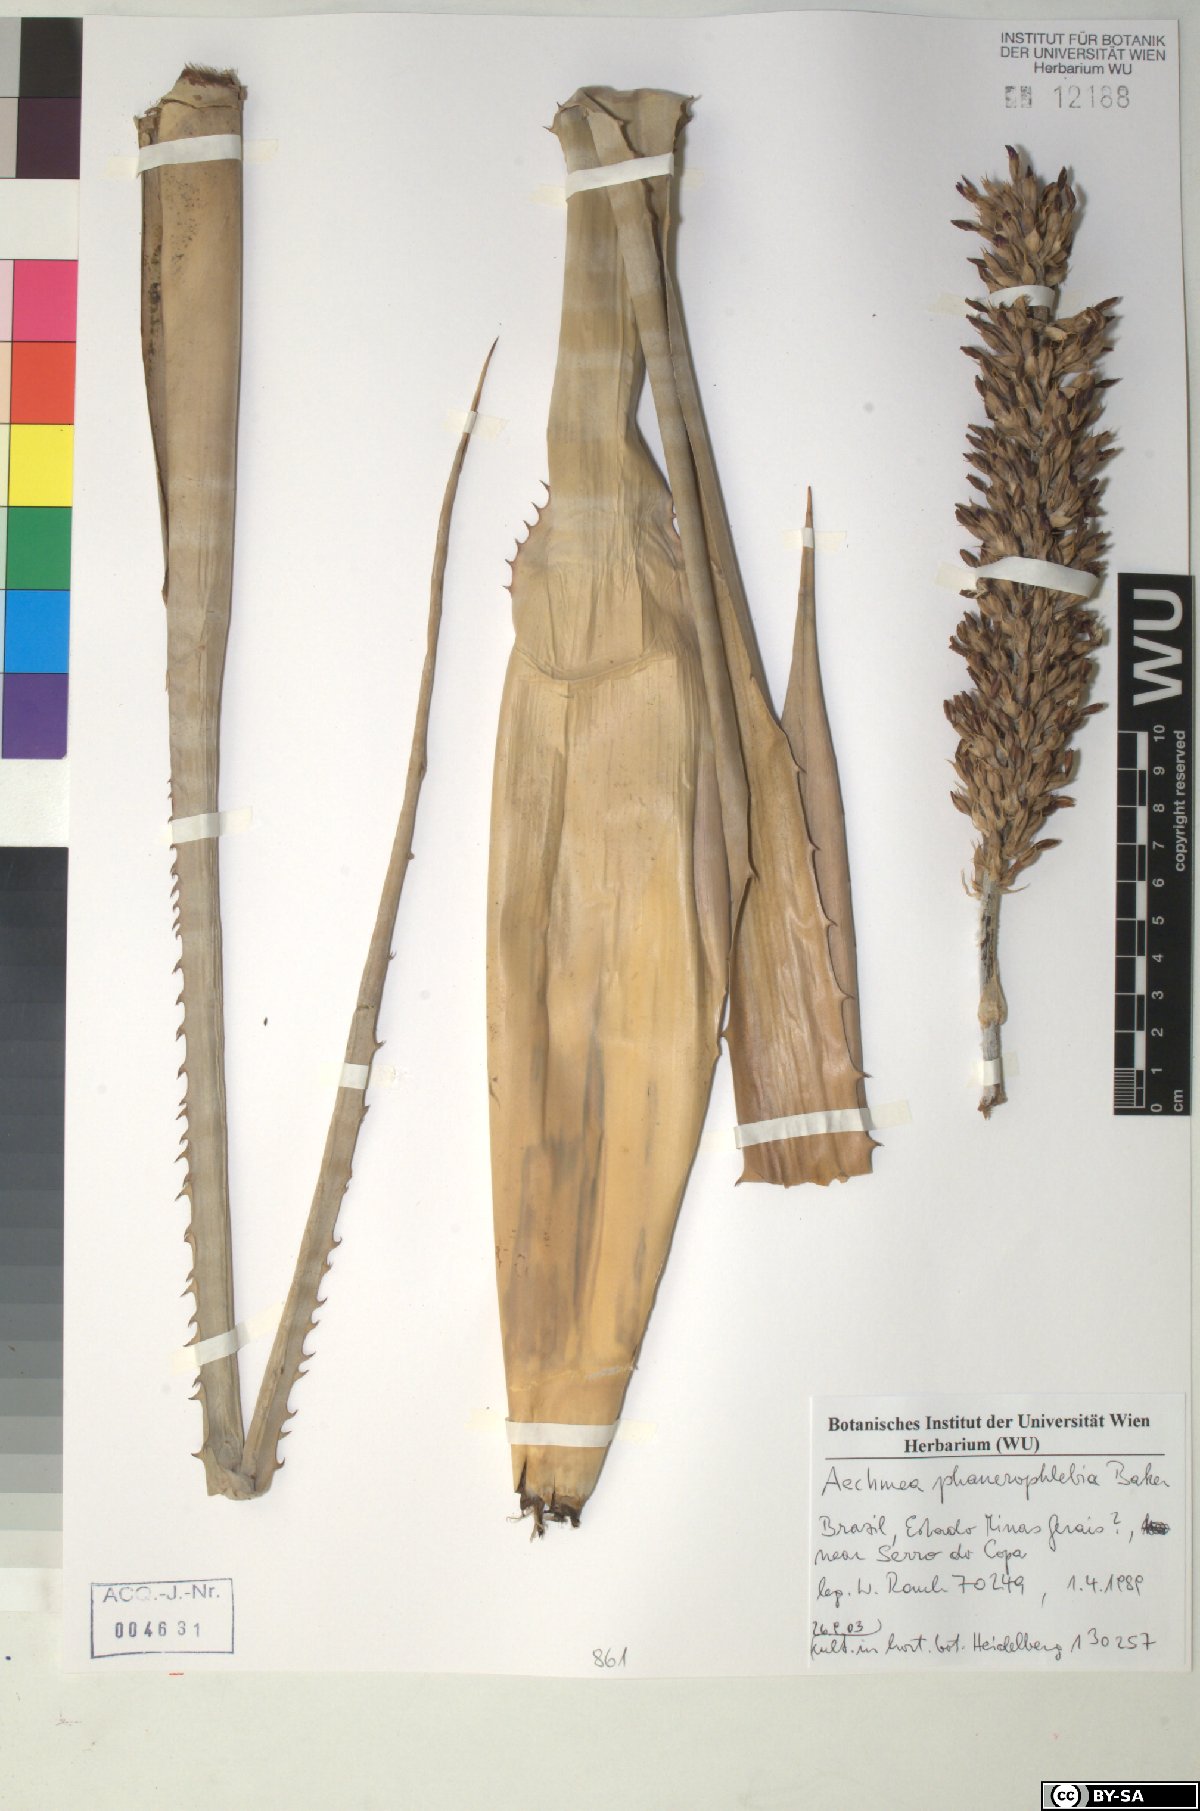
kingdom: Plantae
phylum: Tracheophyta
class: Liliopsida
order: Poales
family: Bromeliaceae
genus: Aechmea
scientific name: Aechmea phanerophlebia
